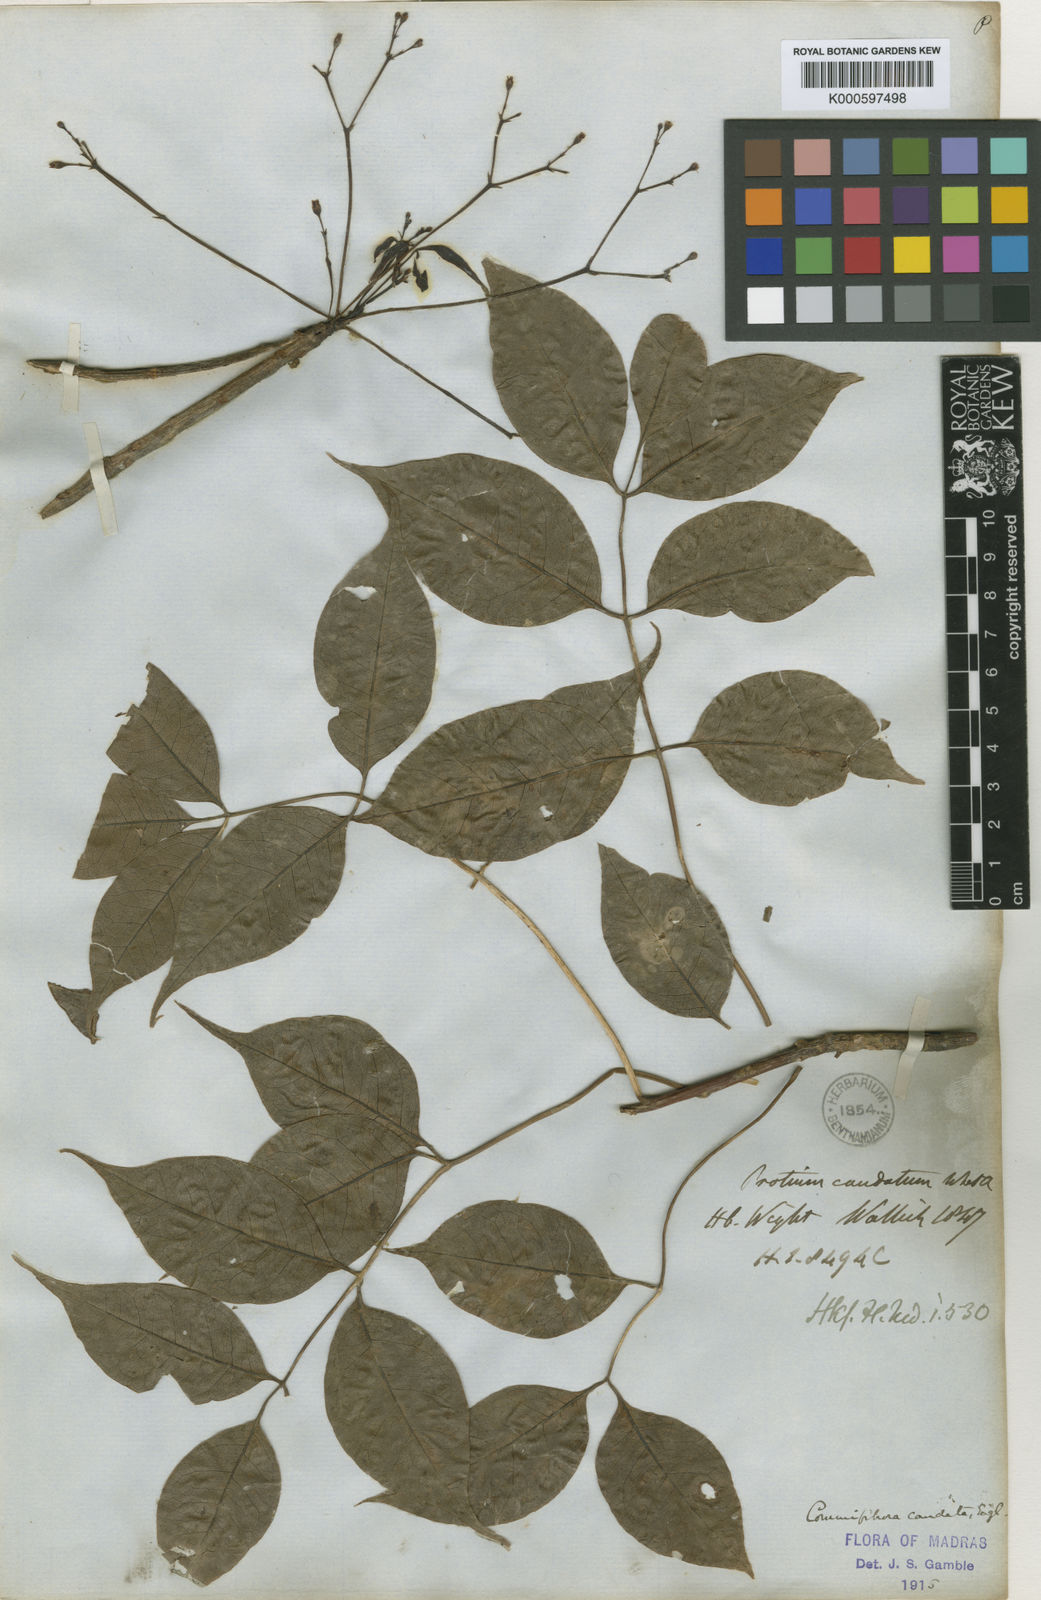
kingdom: Plantae
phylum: Tracheophyta
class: Magnoliopsida
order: Sapindales
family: Burseraceae
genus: Commiphora
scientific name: Commiphora caudata
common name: Hill-mango
